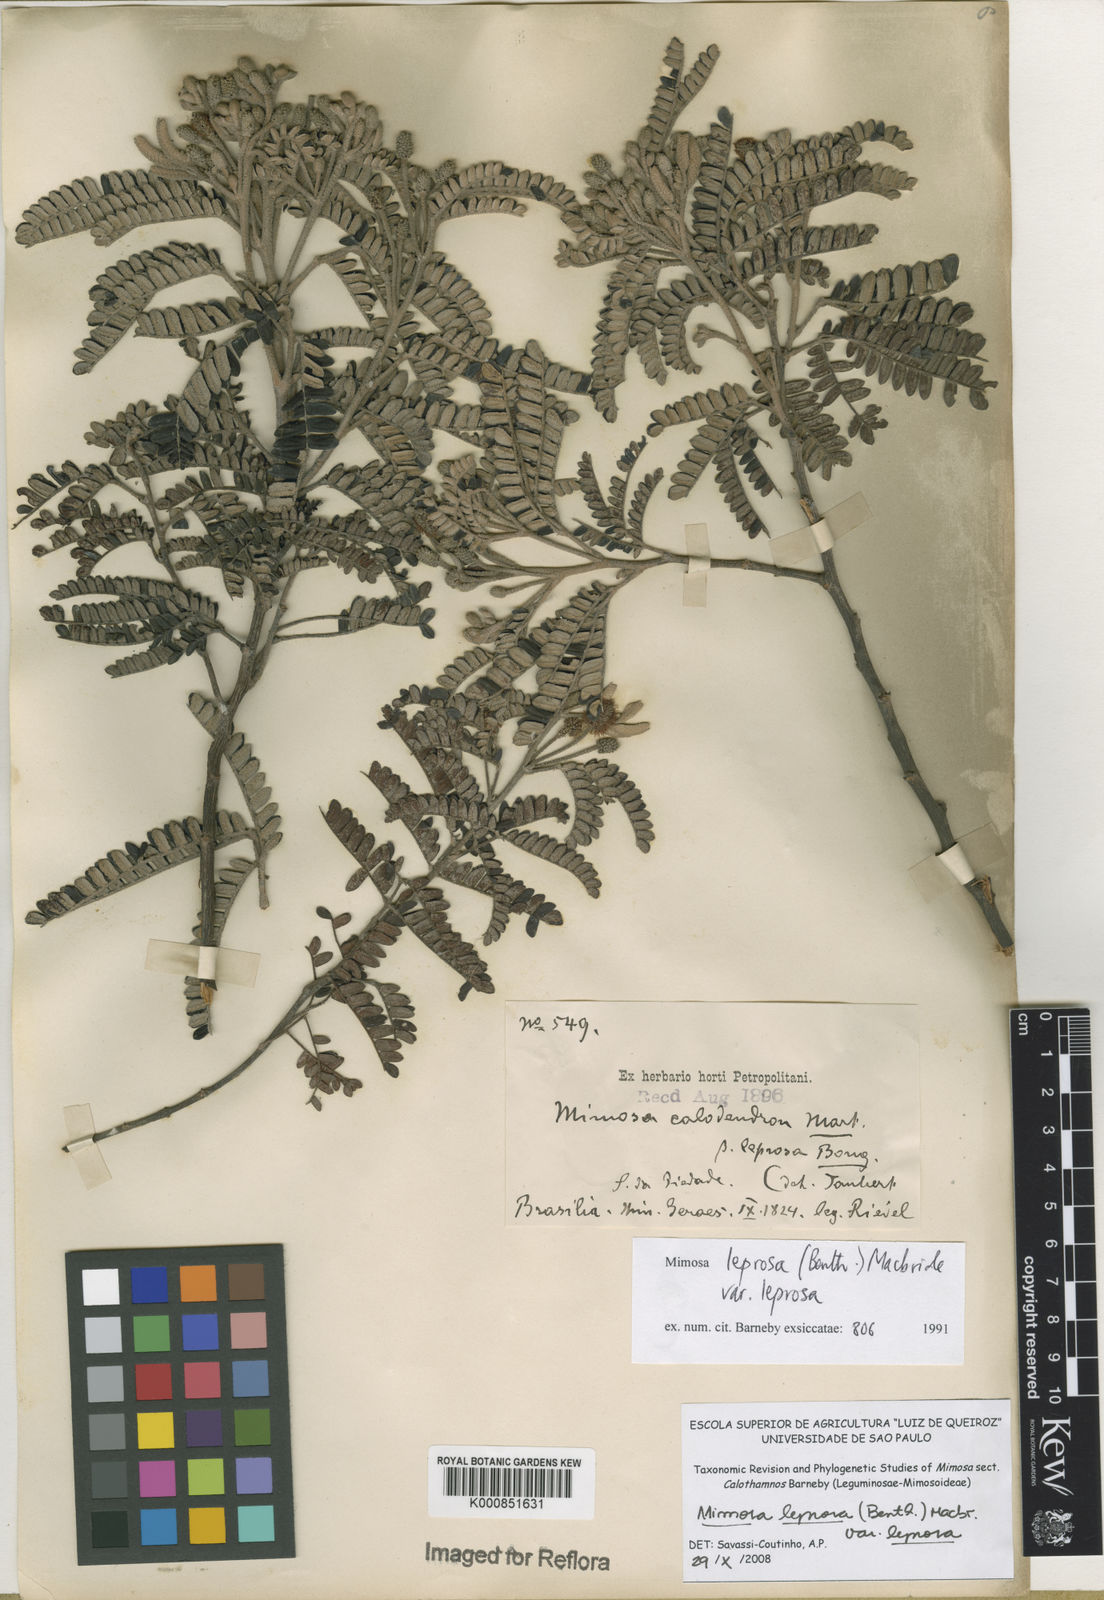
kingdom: Plantae
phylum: Tracheophyta
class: Magnoliopsida
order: Fabales
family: Fabaceae
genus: Mimosa
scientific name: Mimosa leprosa
